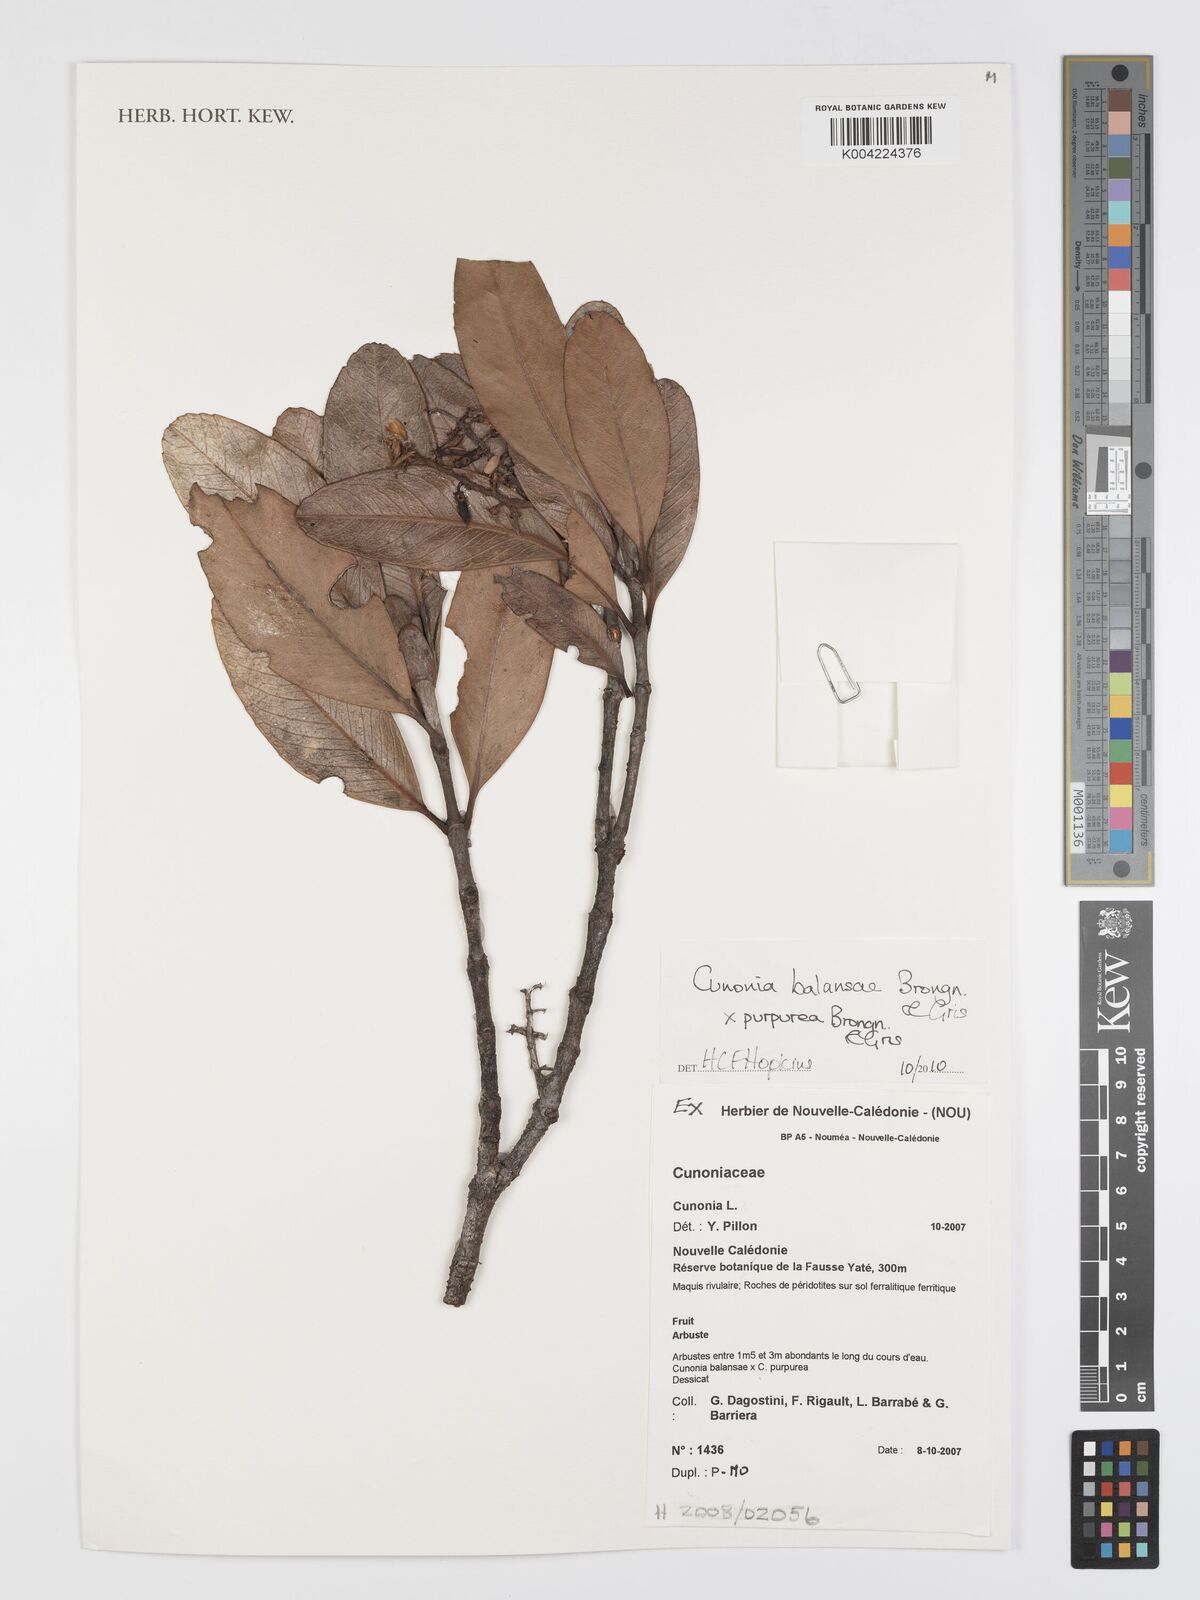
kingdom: Plantae
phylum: Tracheophyta
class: Magnoliopsida
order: Oxalidales
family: Cunoniaceae
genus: Cunonia
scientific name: Cunonia purpurea
